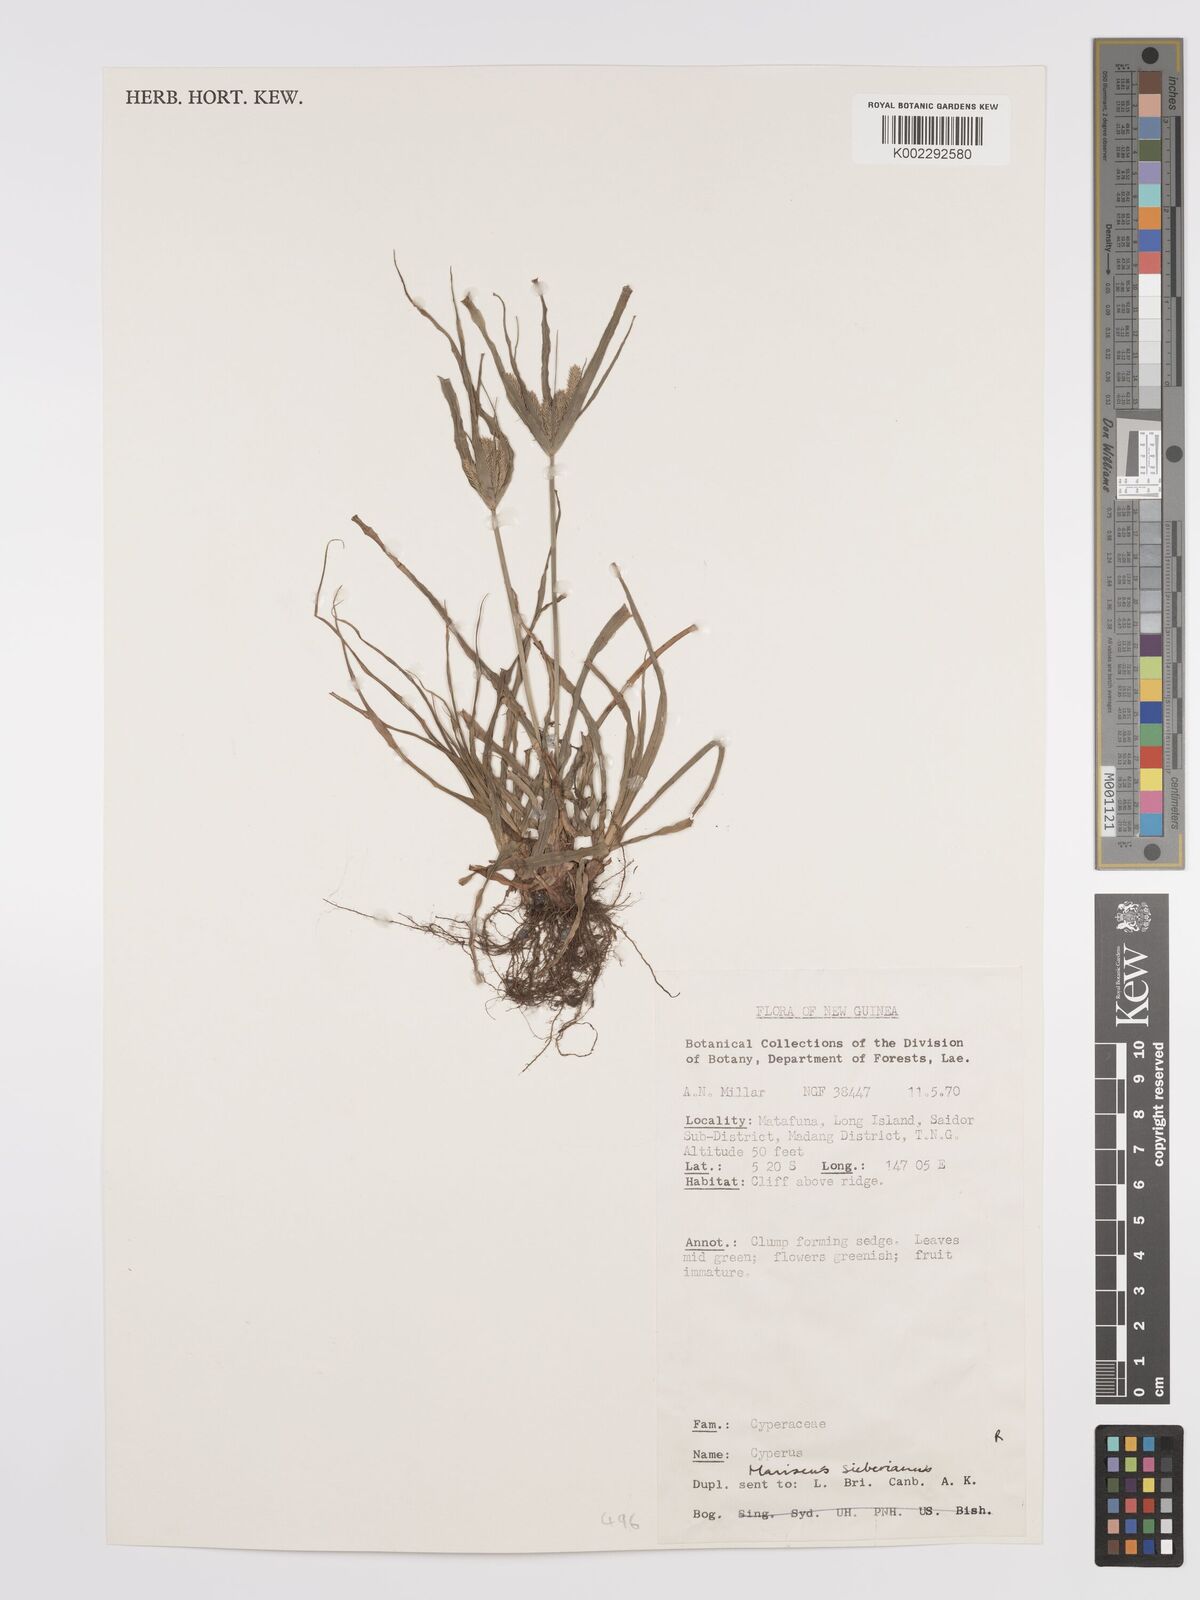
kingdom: Plantae
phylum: Tracheophyta
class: Liliopsida
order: Poales
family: Cyperaceae
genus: Cyperus
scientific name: Cyperus cyperoides
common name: Pacific island flat sedge
